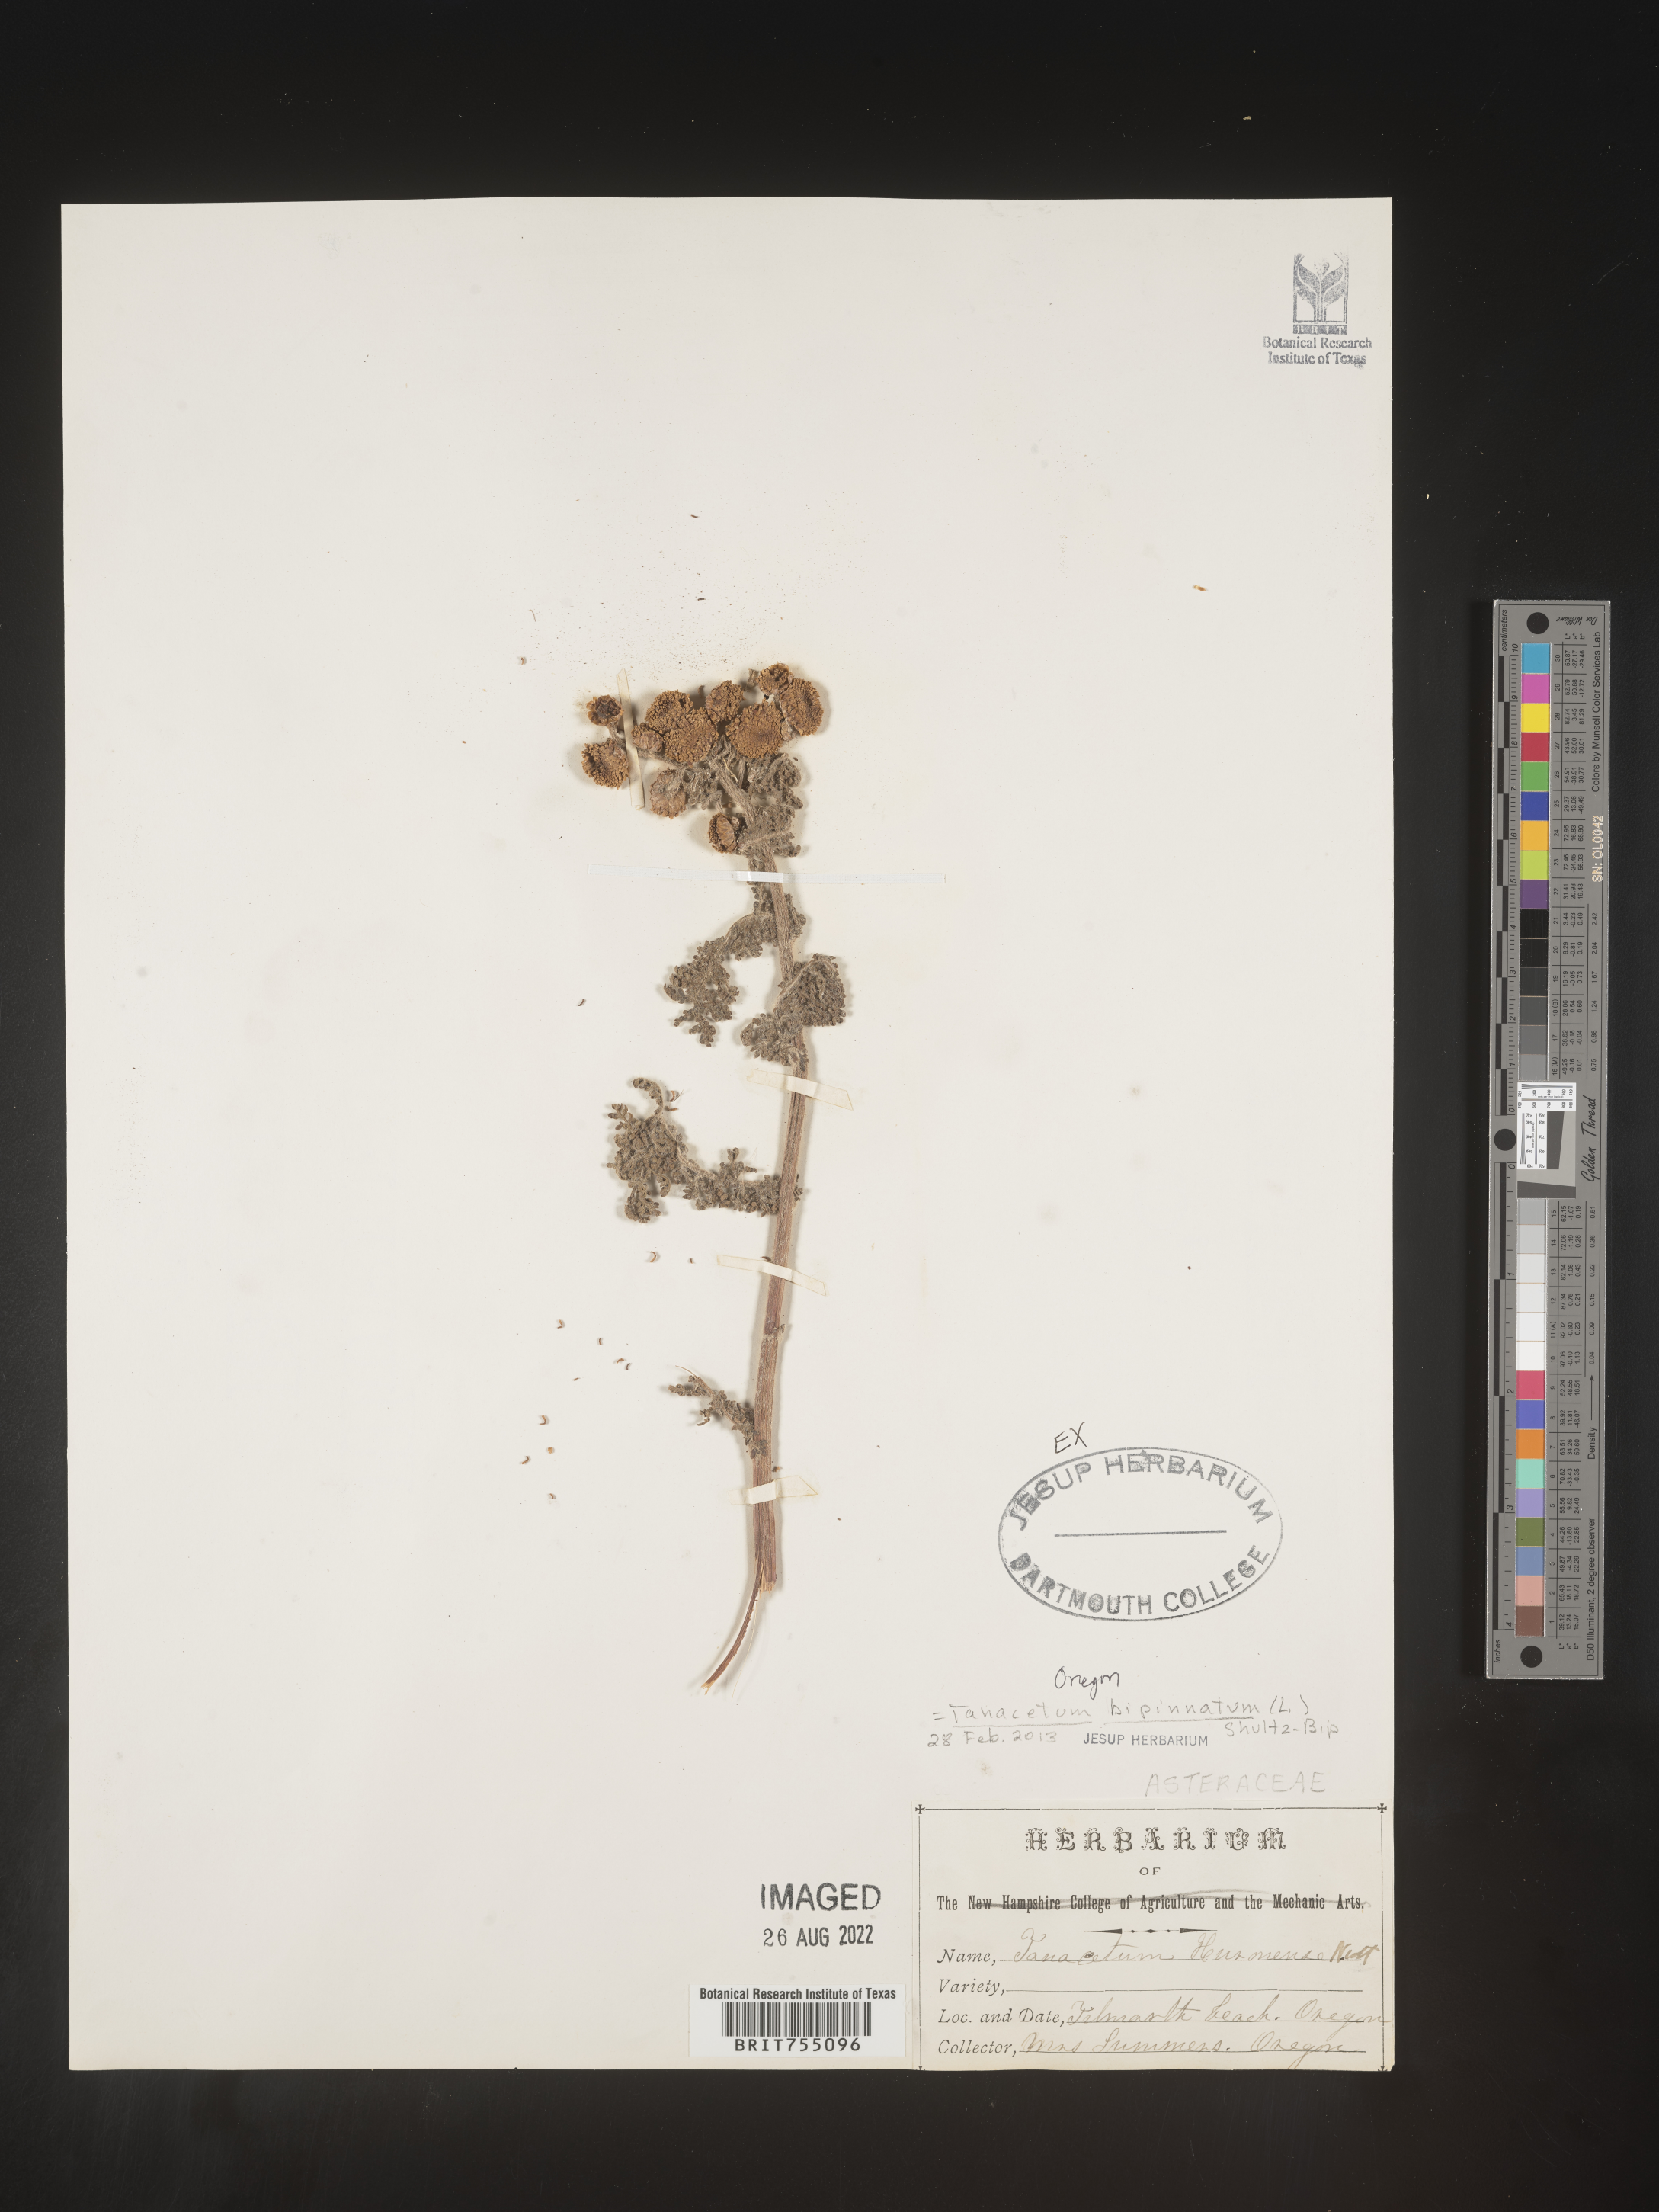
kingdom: Plantae
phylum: Tracheophyta
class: Magnoliopsida
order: Asterales
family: Asteraceae
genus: Tanacetum
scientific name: Tanacetum
